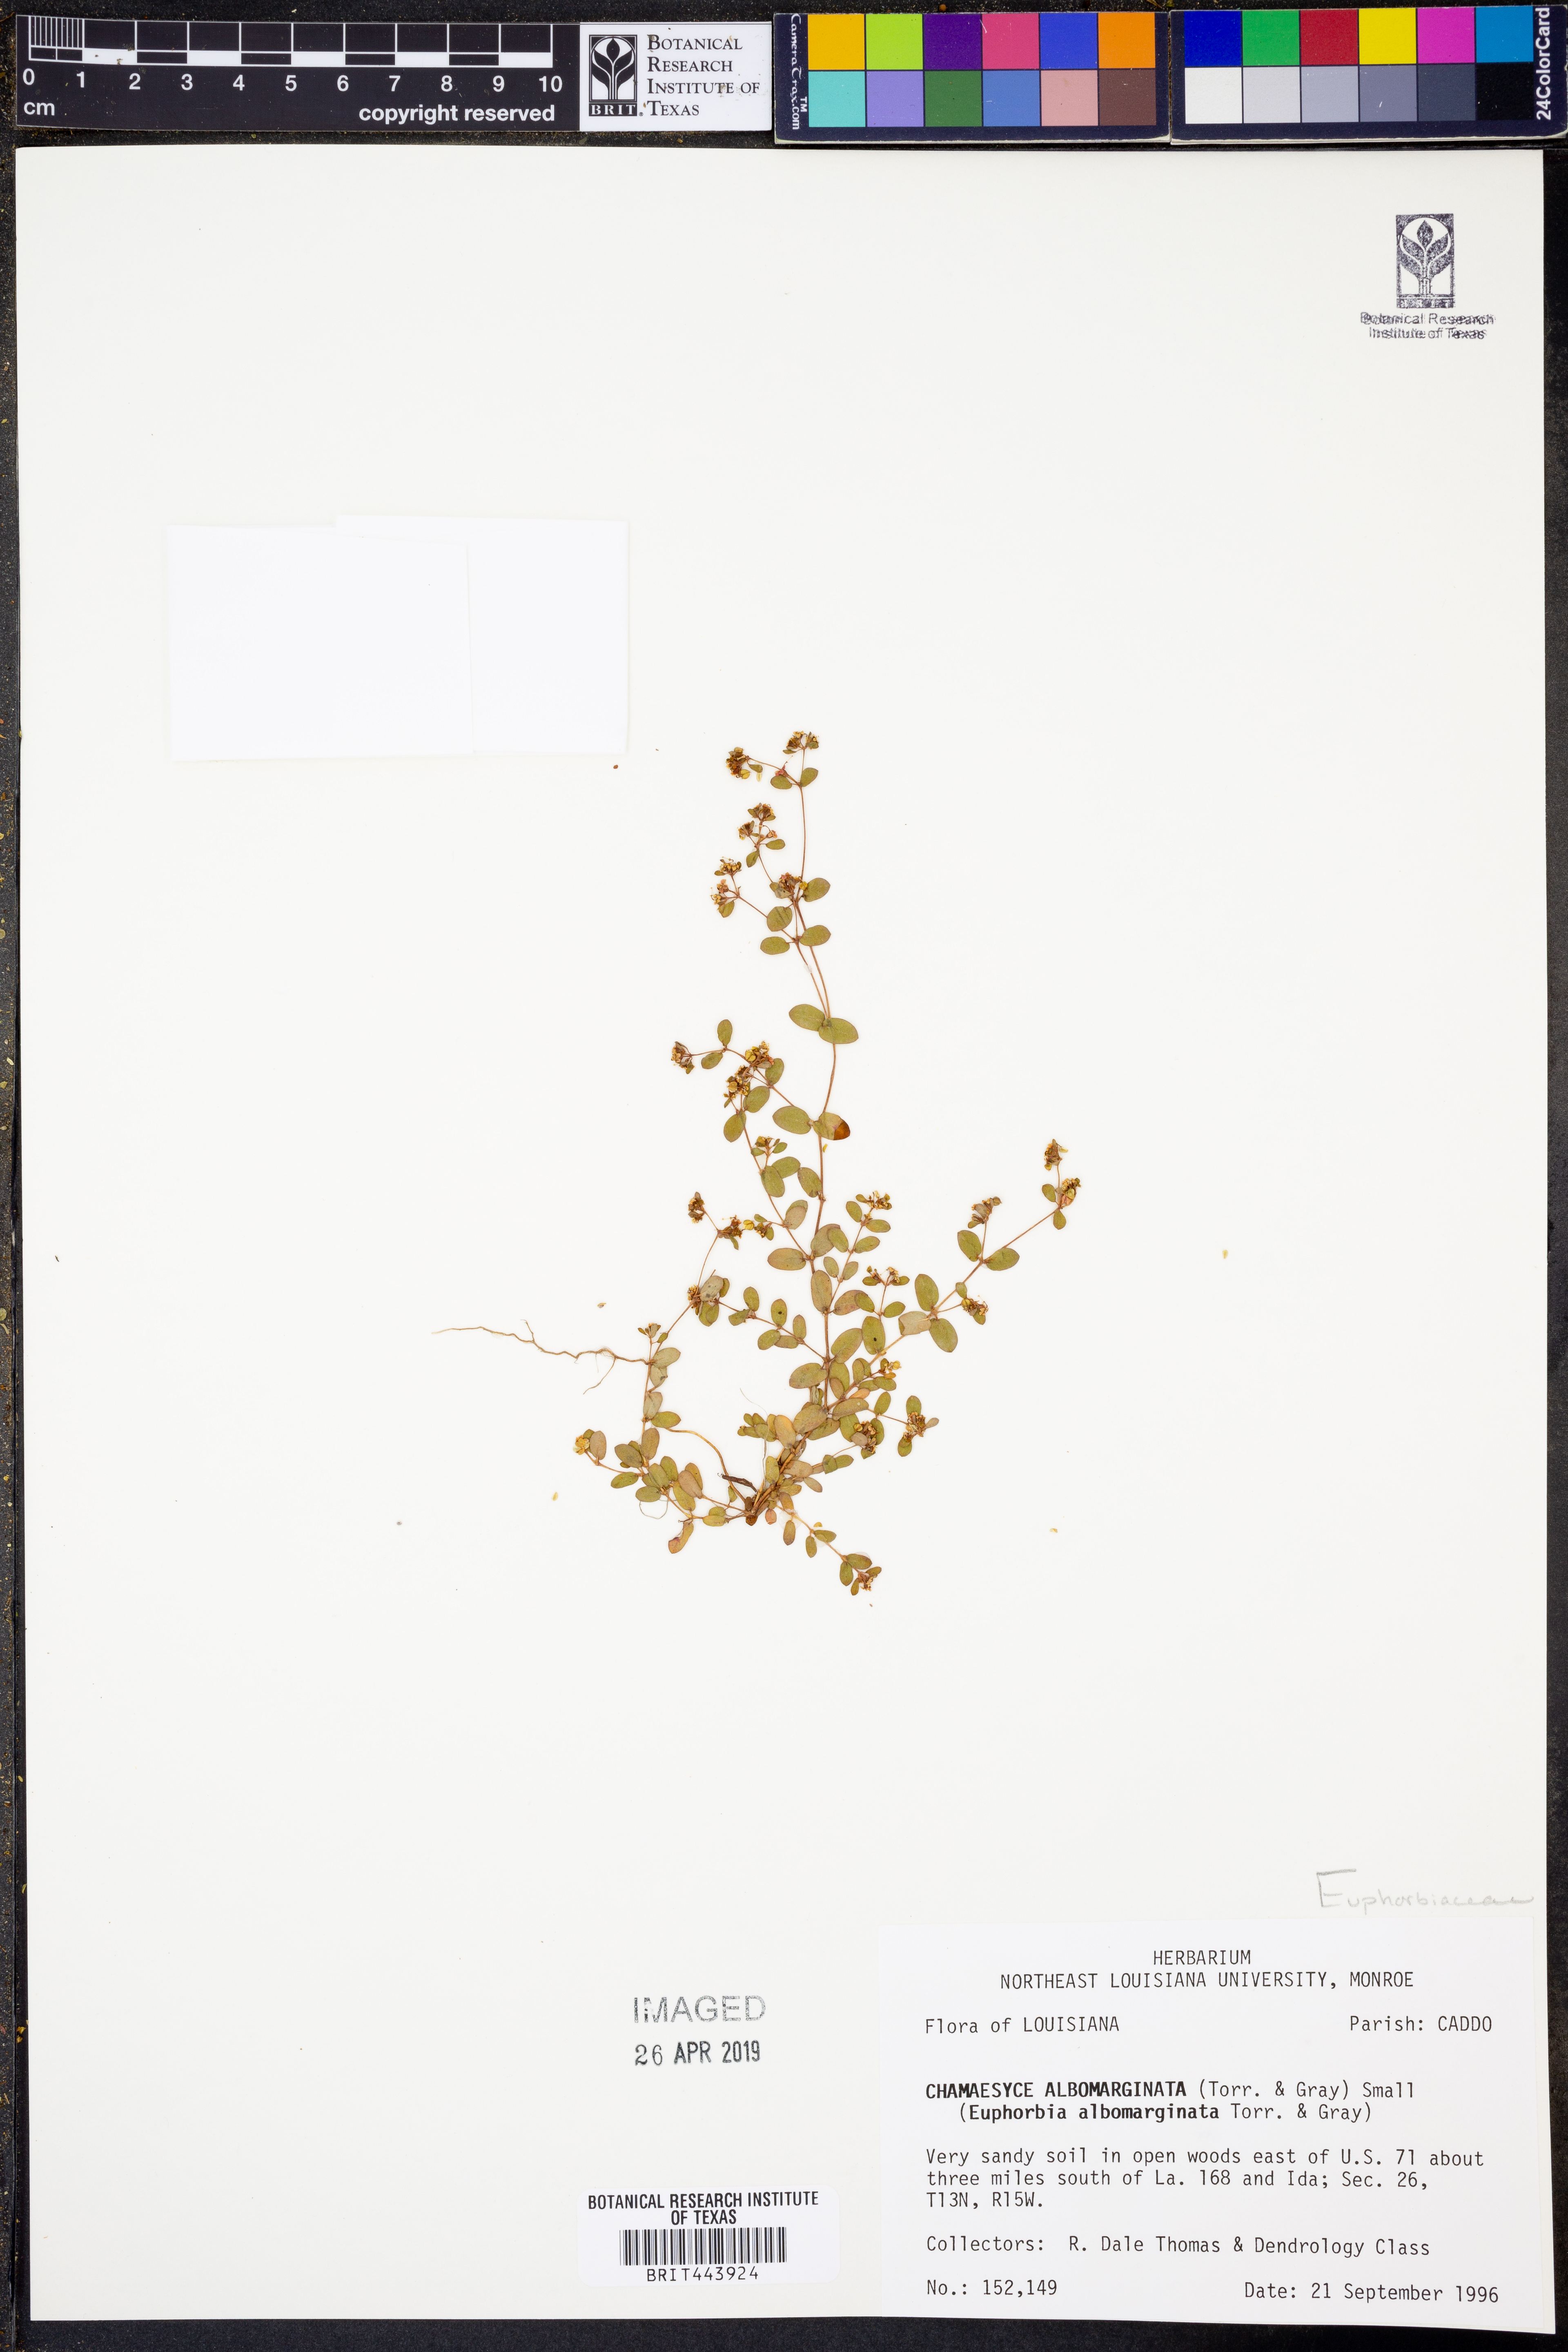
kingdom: Plantae
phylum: Tracheophyta
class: Magnoliopsida
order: Malpighiales
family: Euphorbiaceae
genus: Euphorbia
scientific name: Euphorbia albomarginata
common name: Whitemargin sandmat
